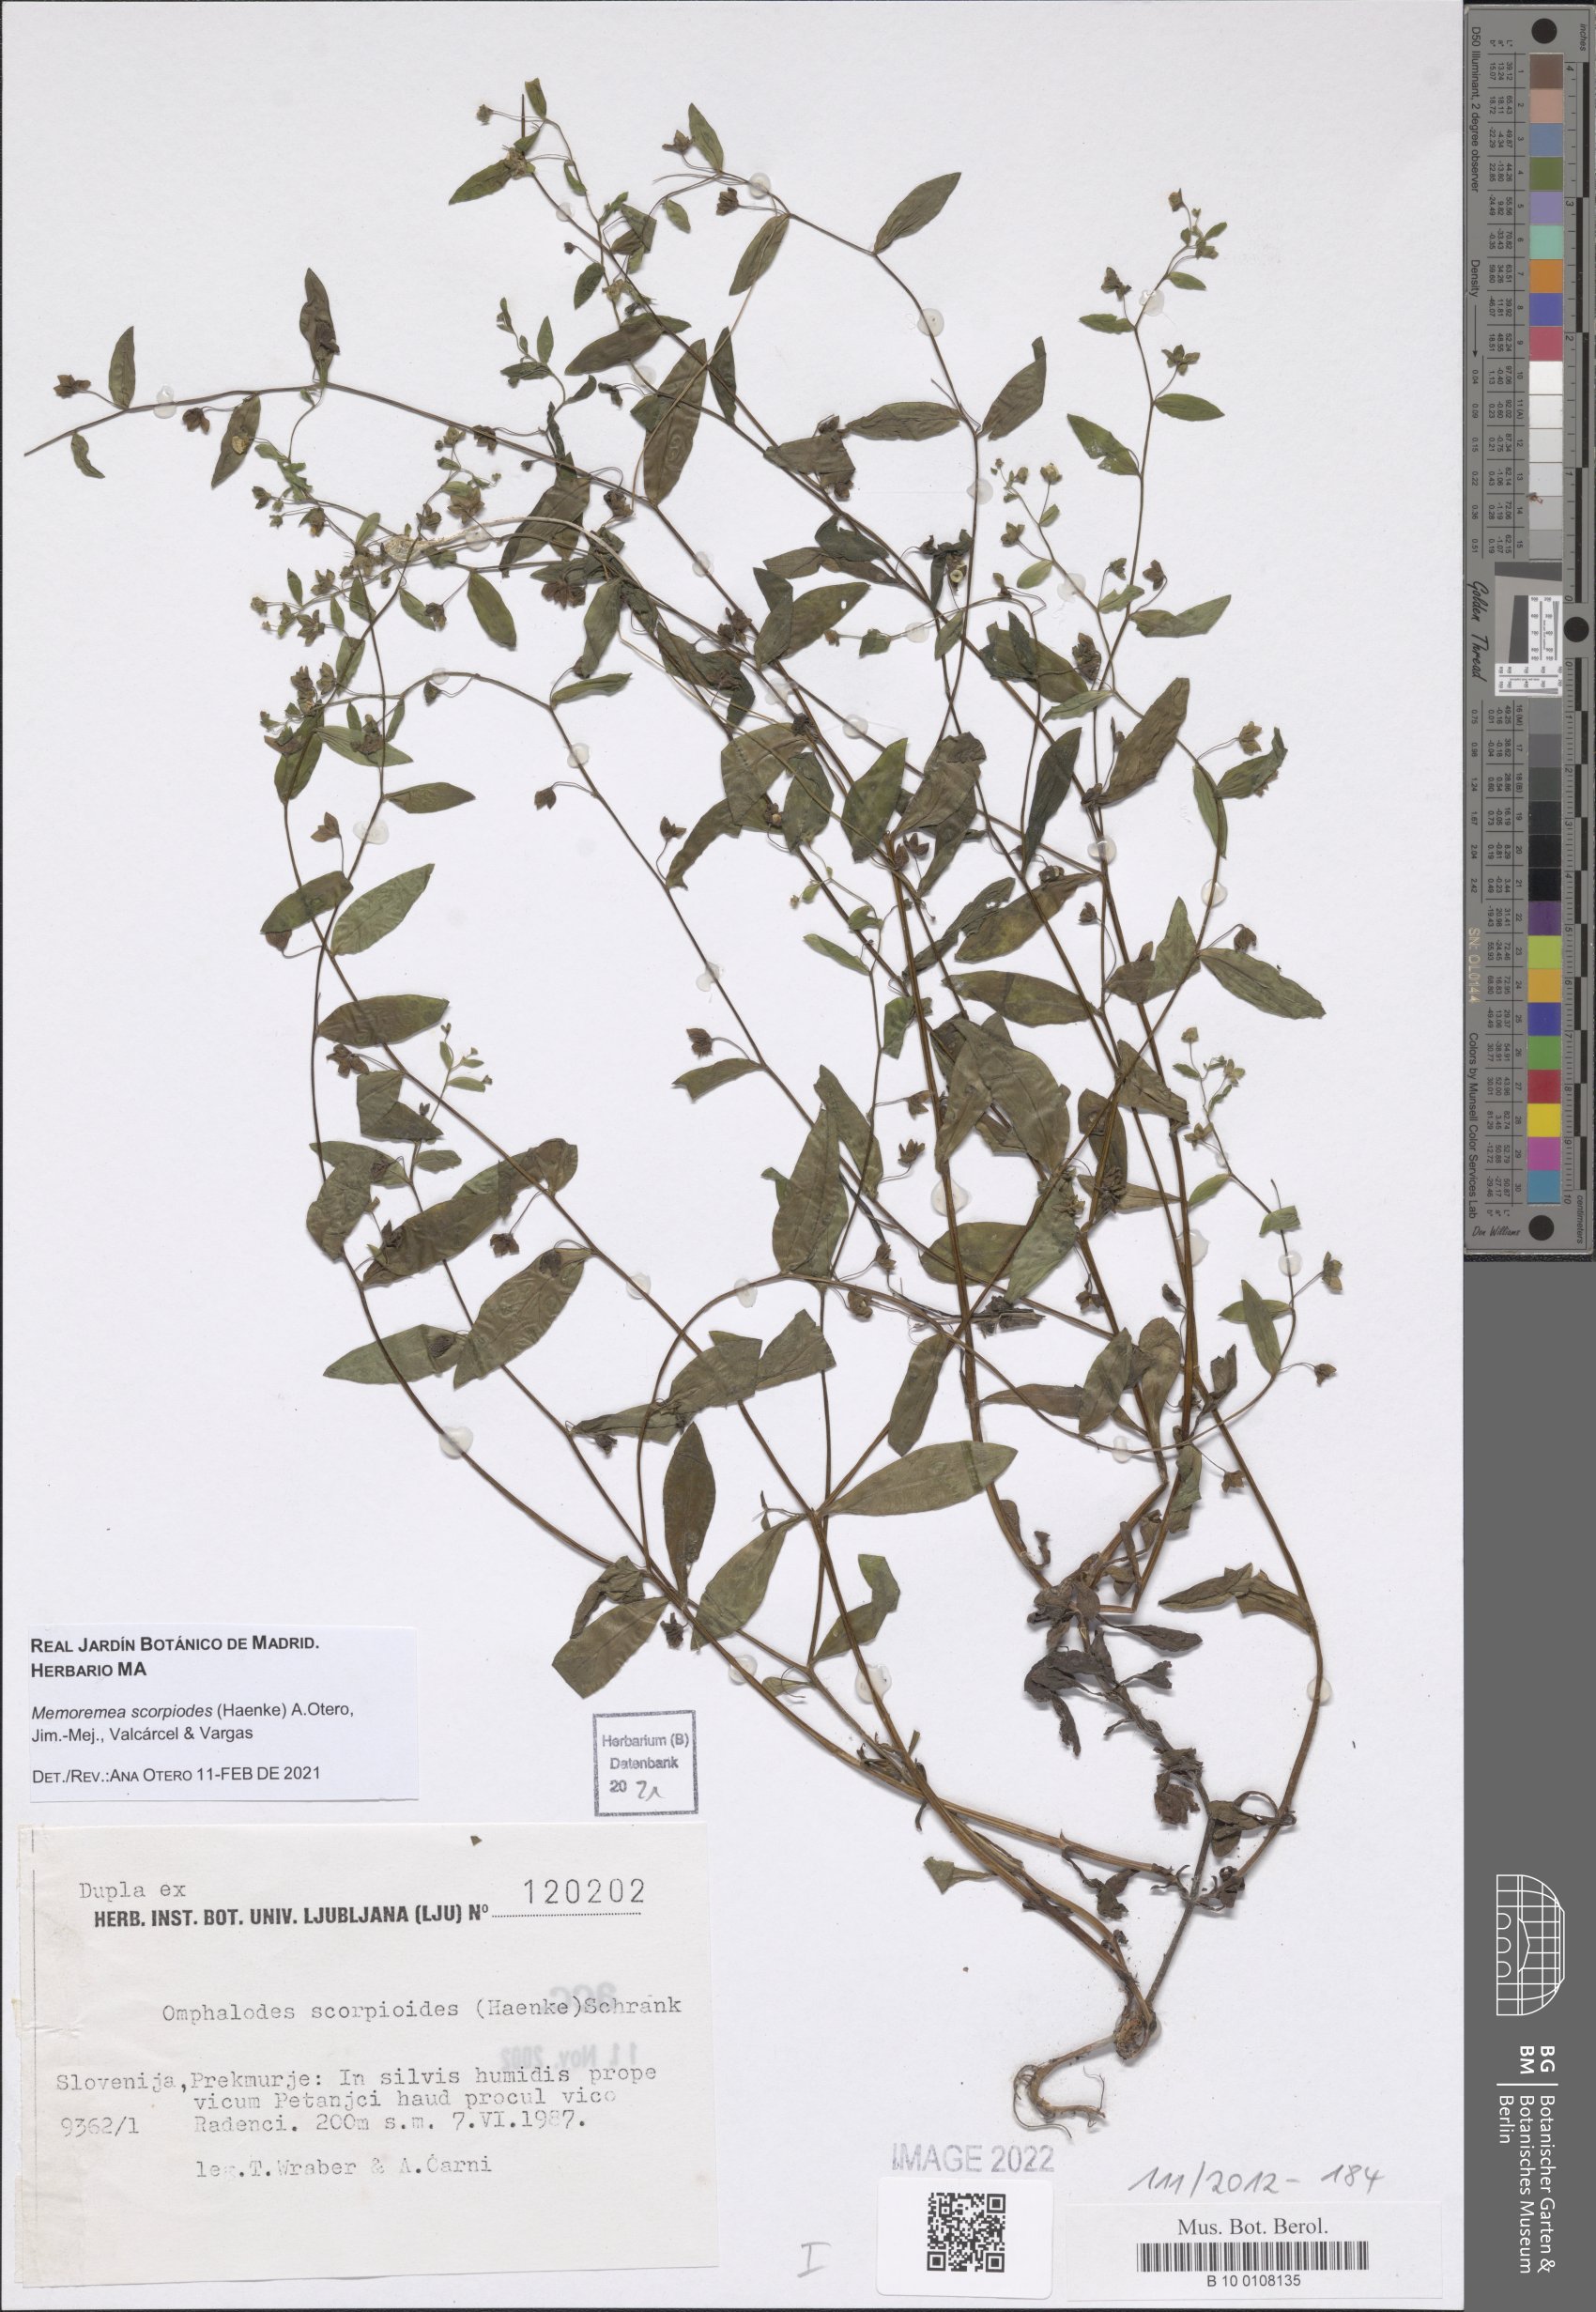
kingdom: Plantae
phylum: Tracheophyta
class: Magnoliopsida
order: Boraginales
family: Boraginaceae
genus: Memoremea
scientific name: Memoremea scorpioides
